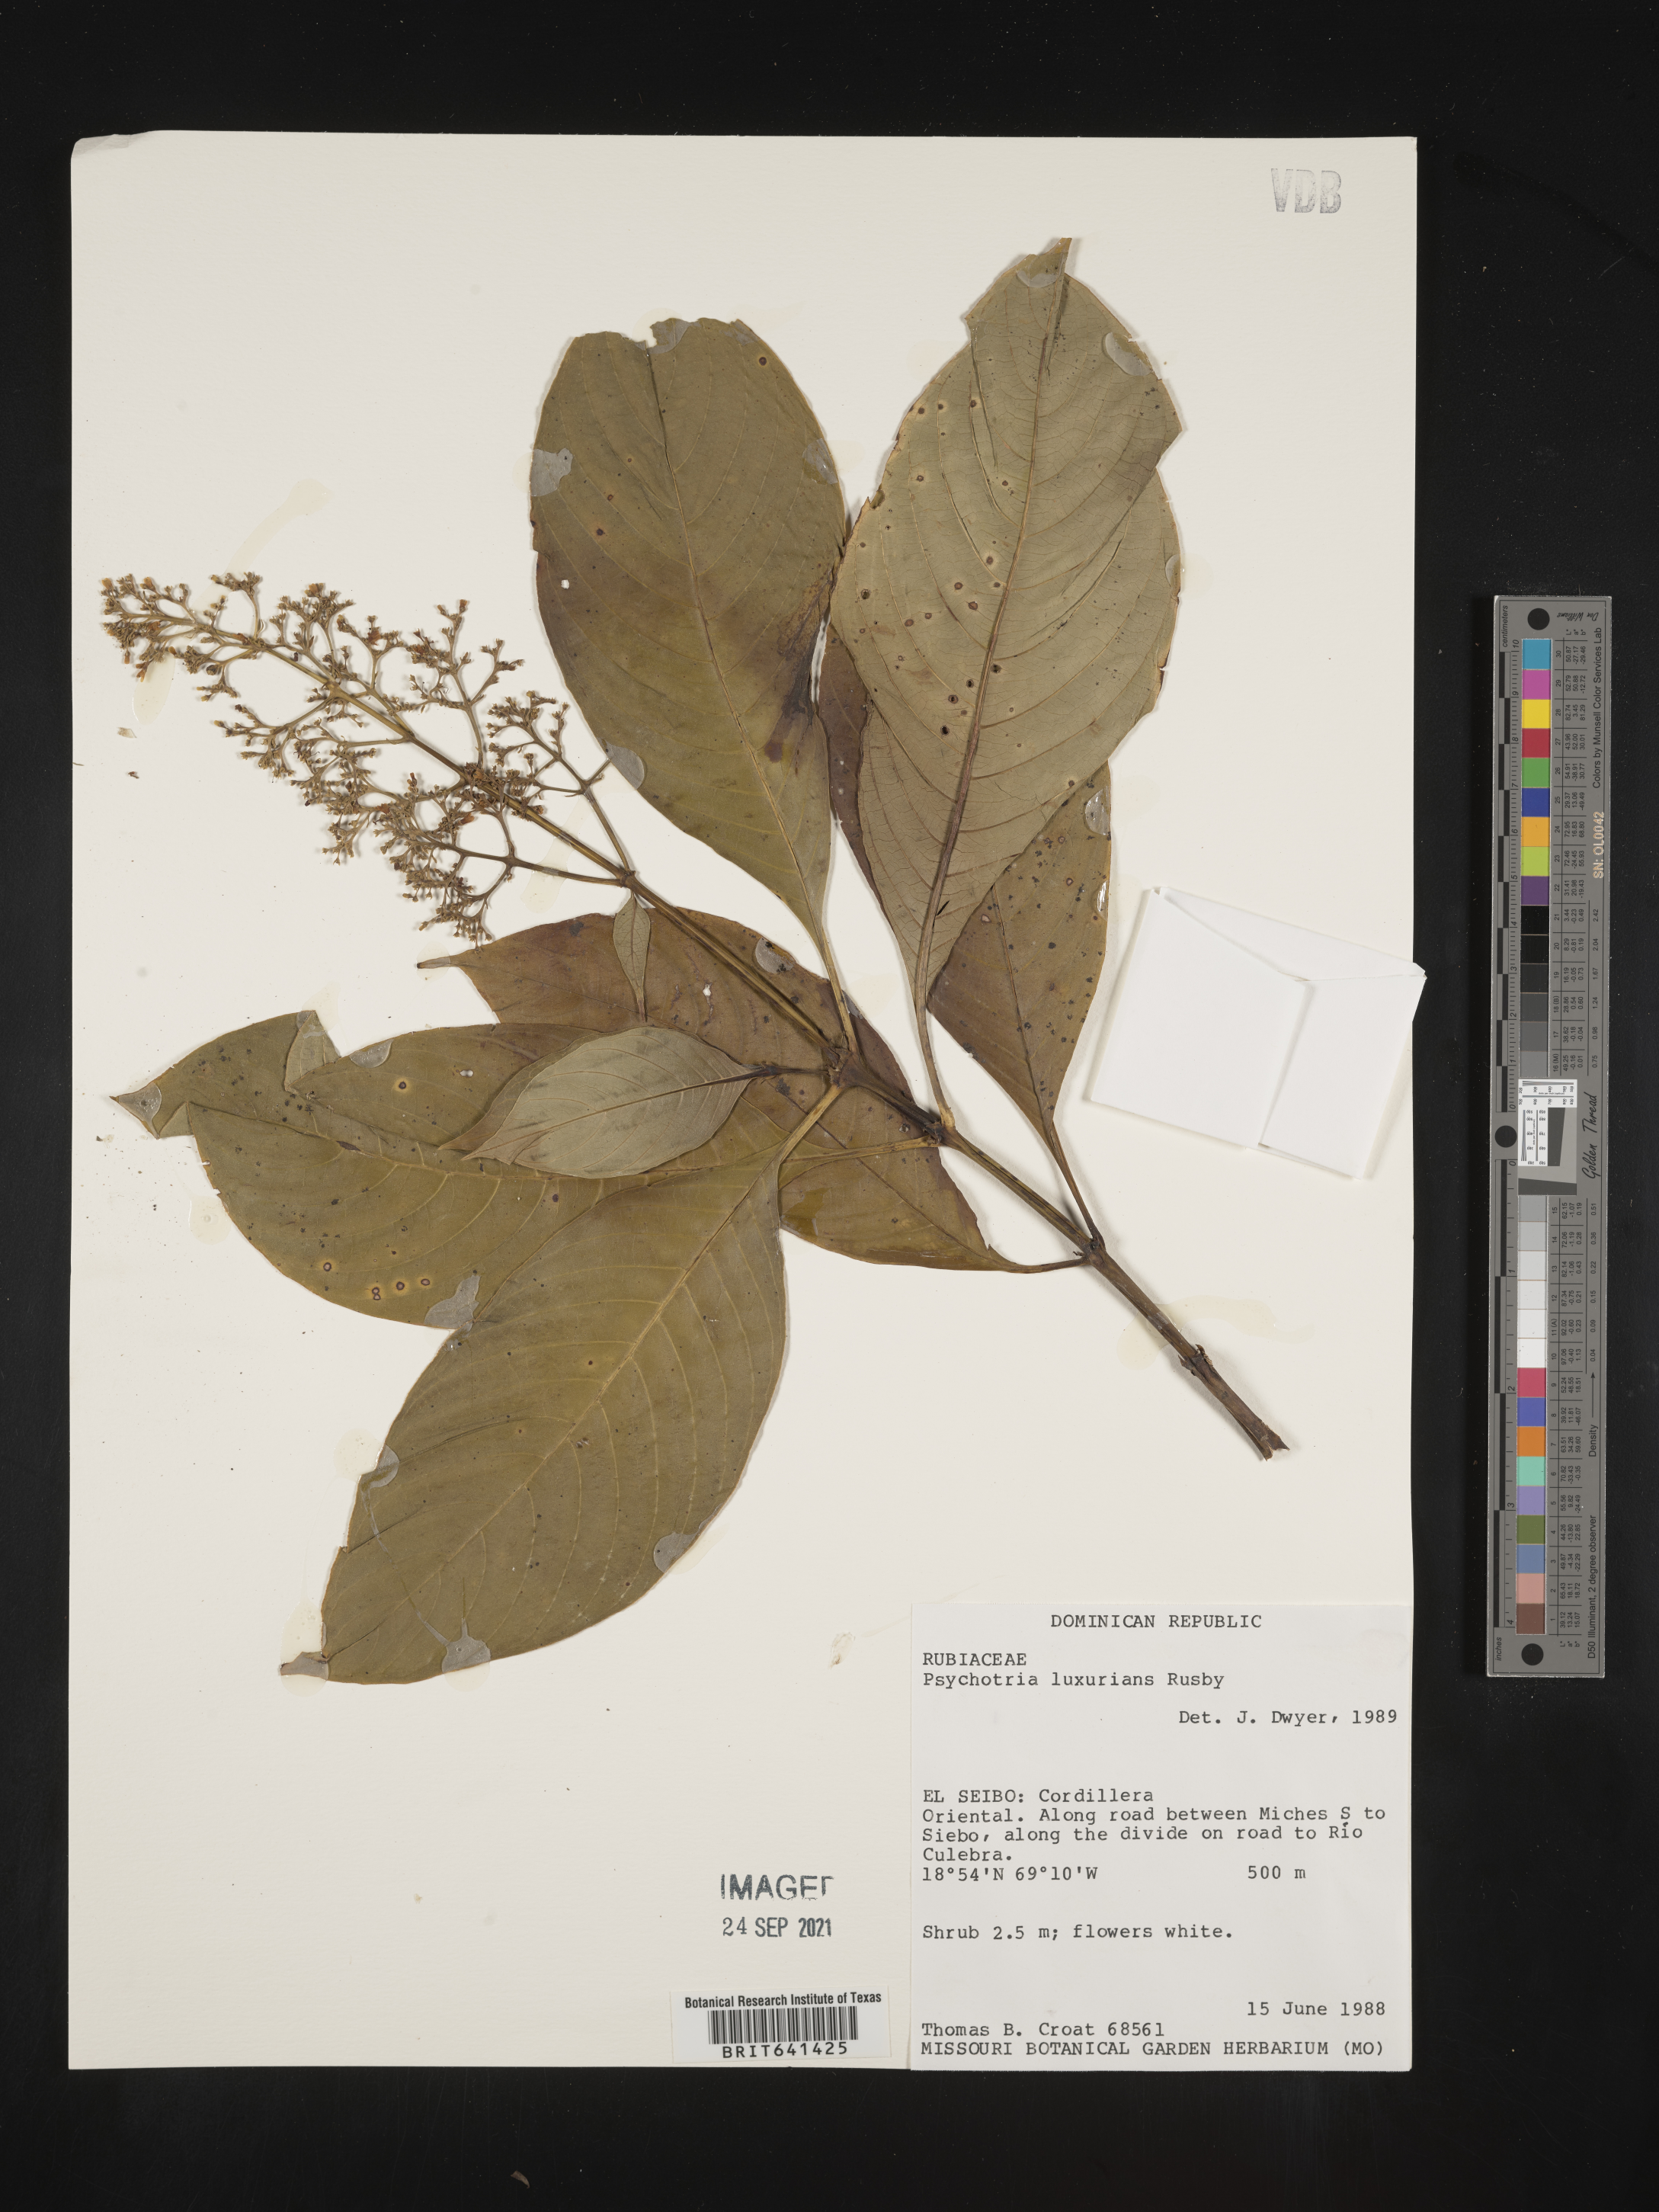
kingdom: Plantae
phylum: Tracheophyta
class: Magnoliopsida
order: Gentianales
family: Rubiaceae
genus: Psychotria
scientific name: Psychotria
